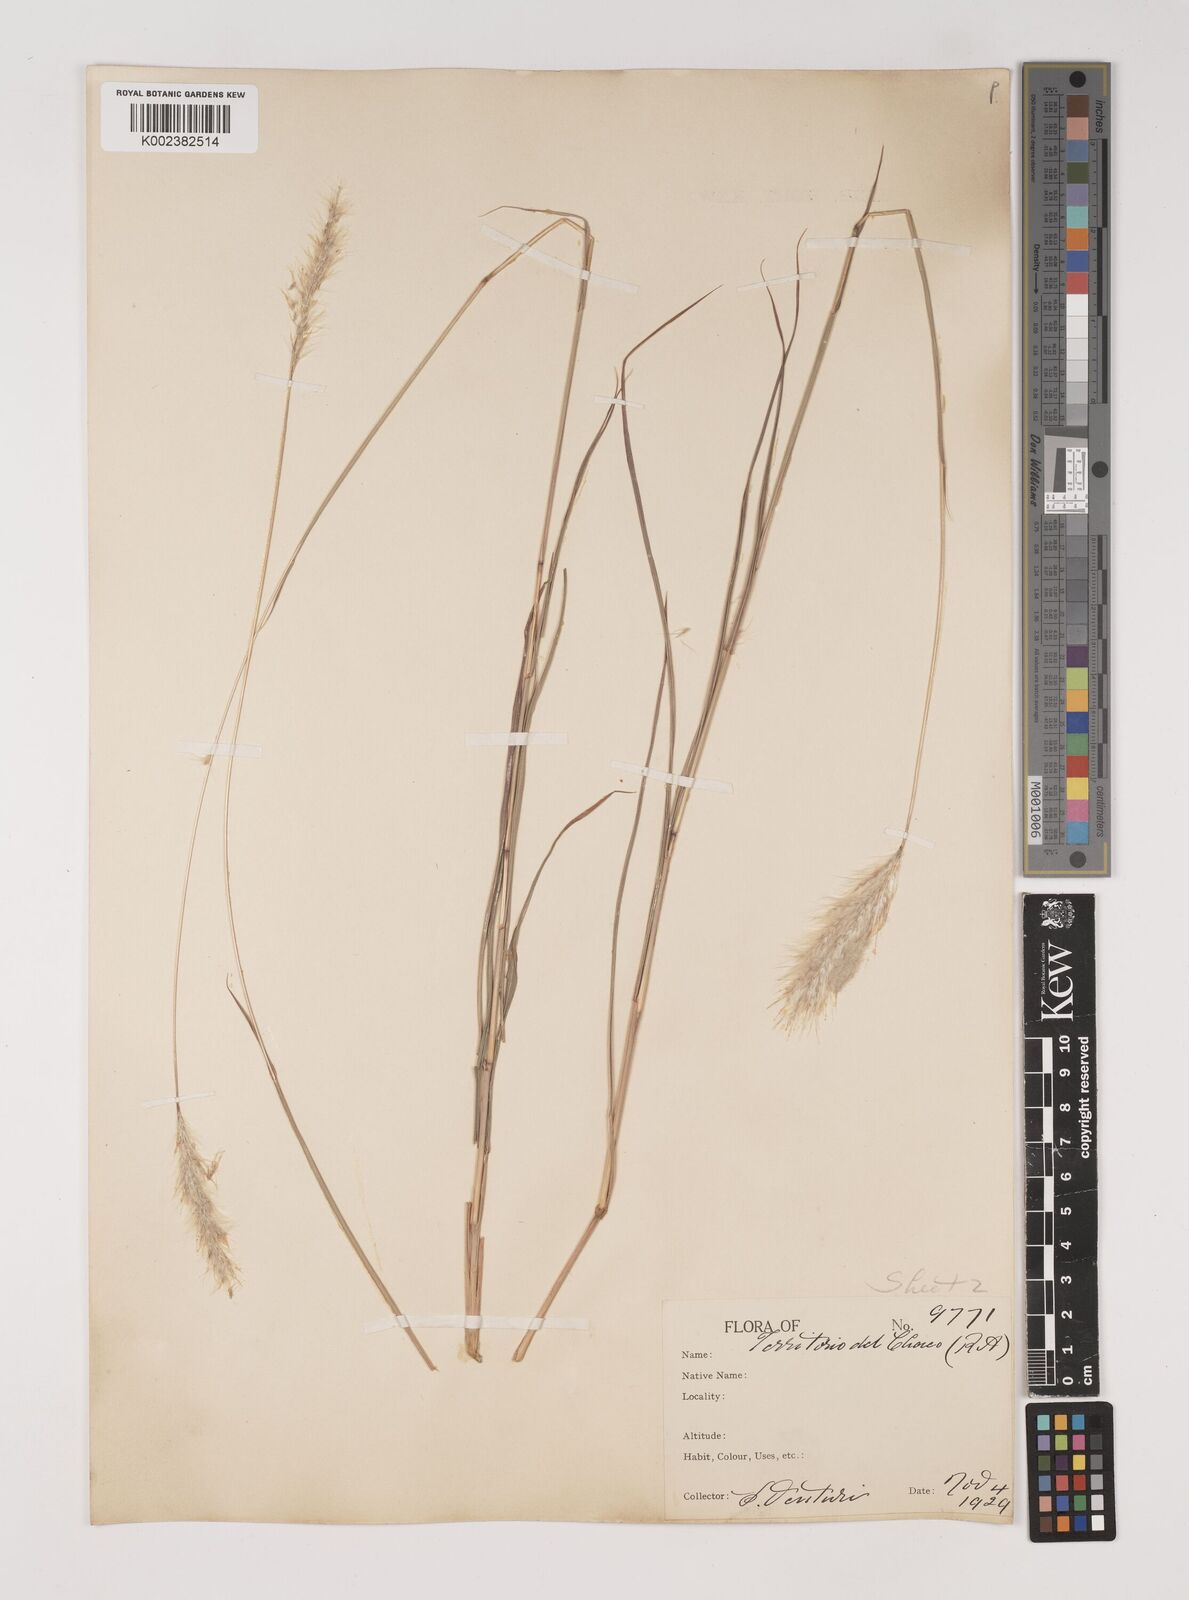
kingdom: Plantae
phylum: Tracheophyta
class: Liliopsida
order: Poales
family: Poaceae
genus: Bothriochloa
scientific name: Bothriochloa laguroides
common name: Silver bluestem
